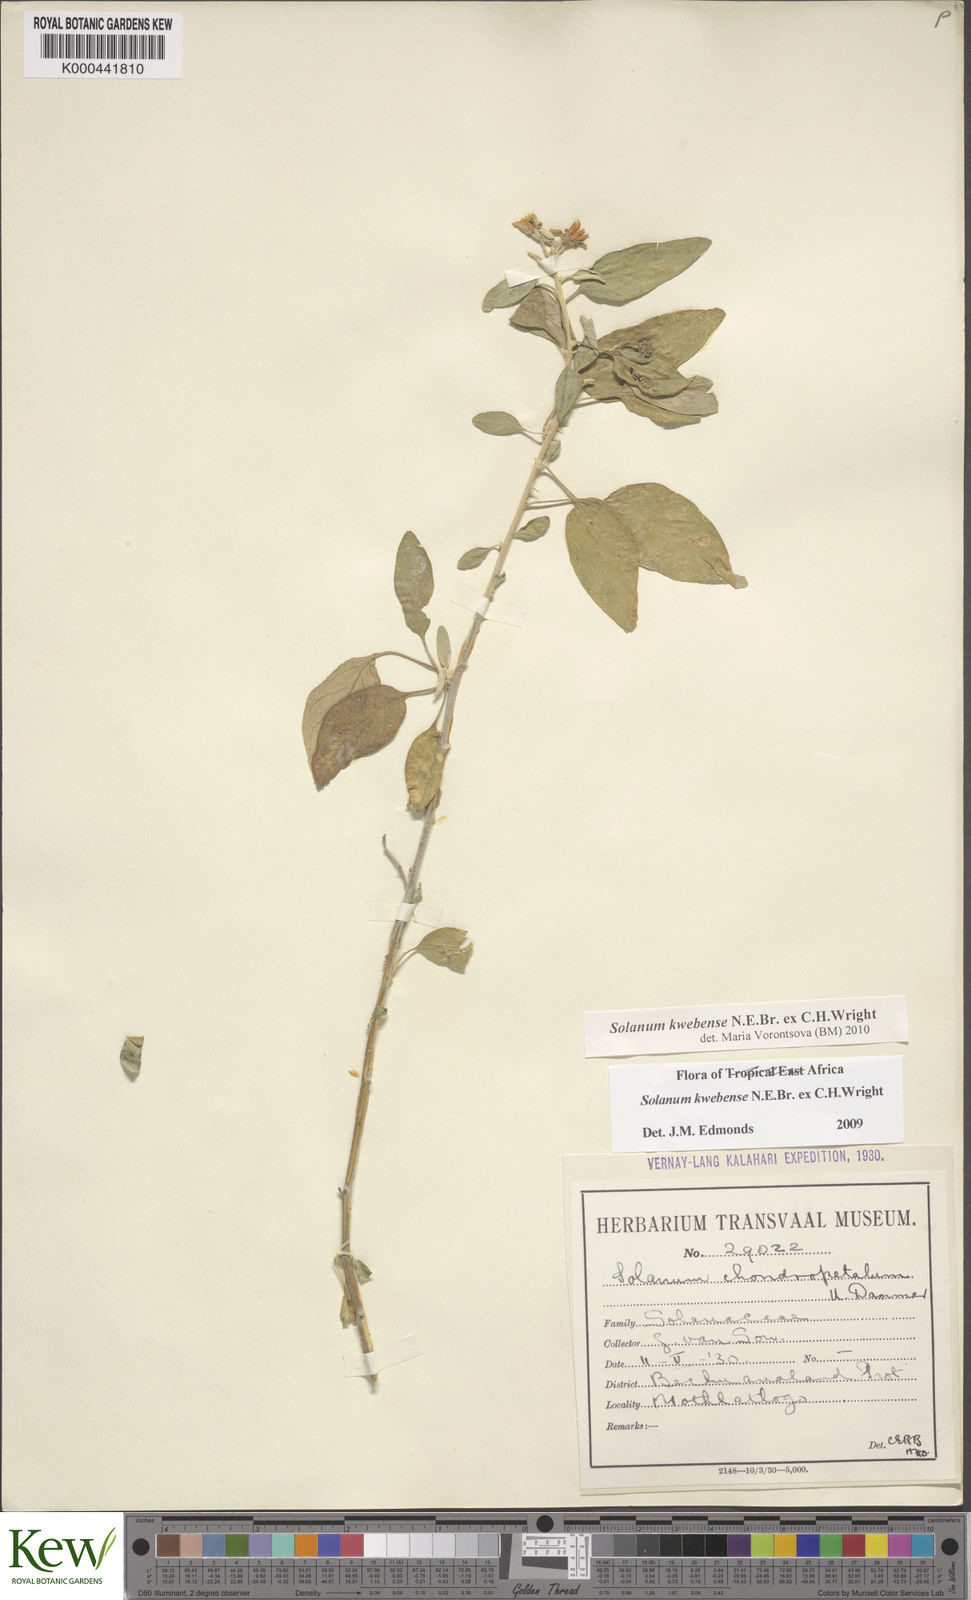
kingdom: Plantae
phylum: Tracheophyta
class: Magnoliopsida
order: Solanales
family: Solanaceae
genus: Solanum
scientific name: Solanum tettense
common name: Mozambique bitter apple
